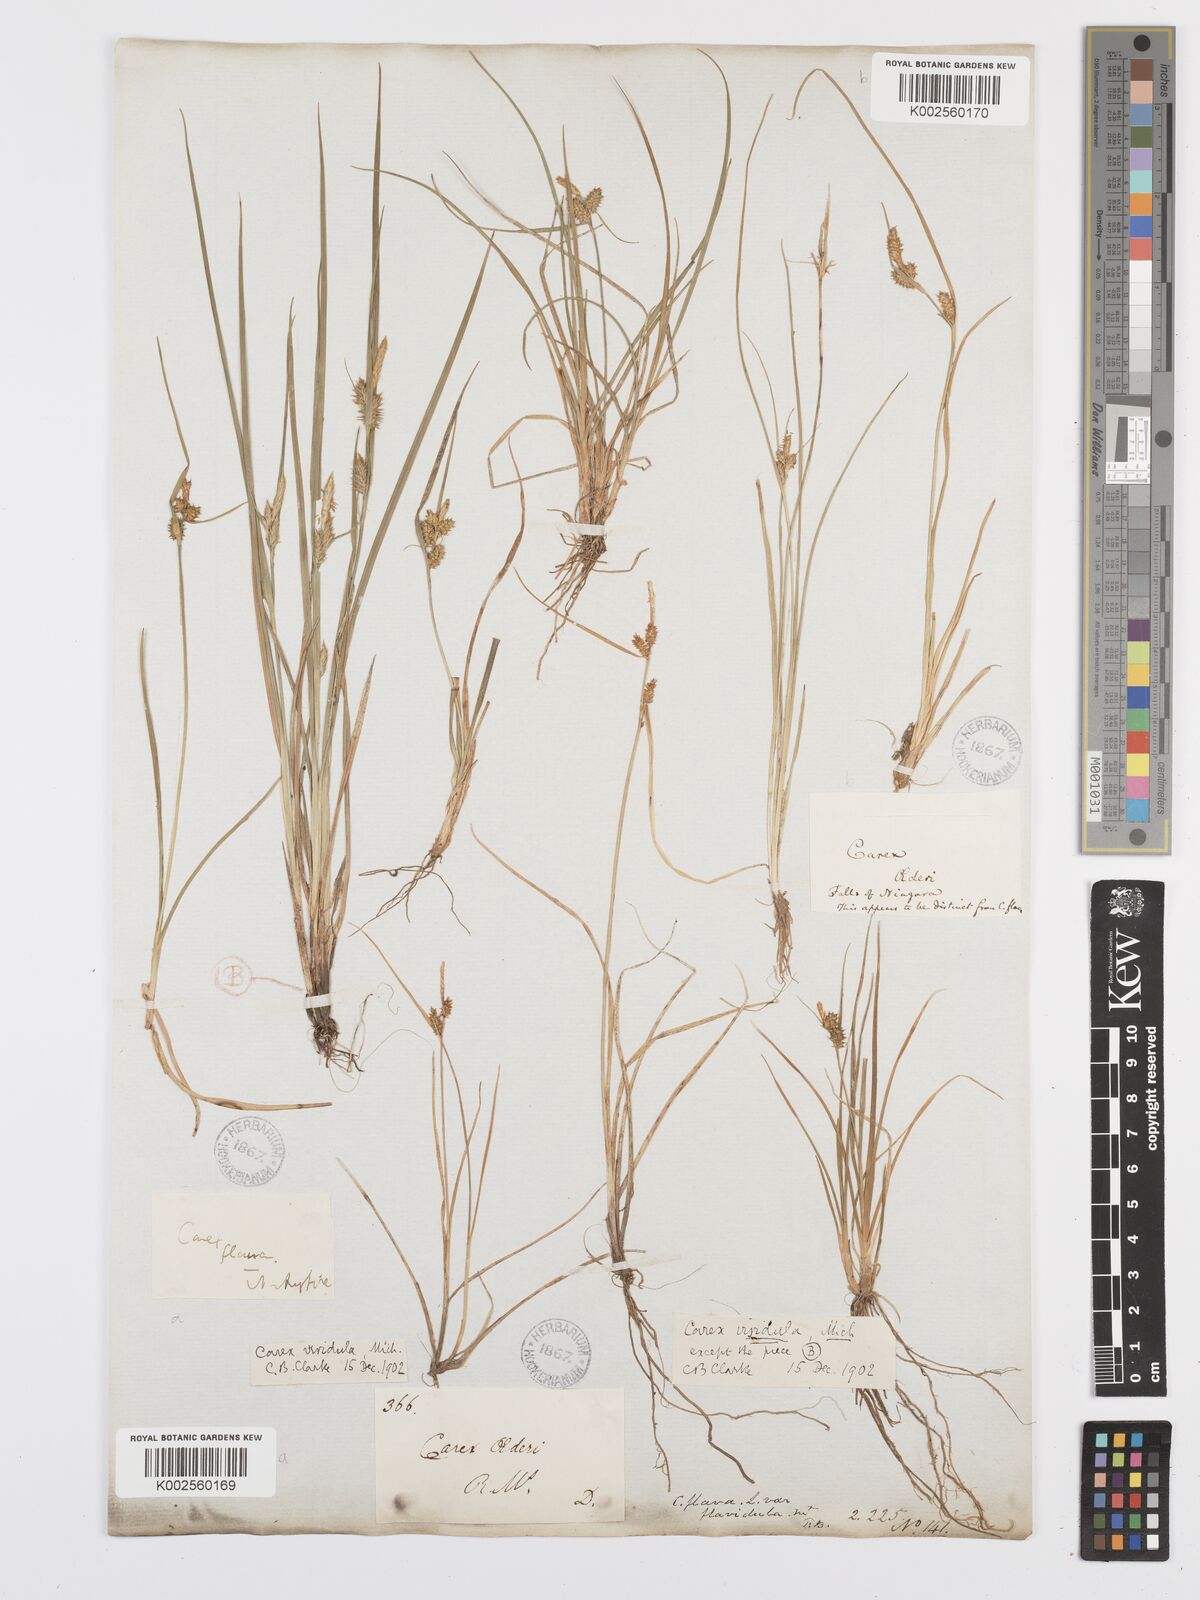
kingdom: Plantae
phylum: Tracheophyta
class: Liliopsida
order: Poales
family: Cyperaceae
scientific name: Cyperaceae
